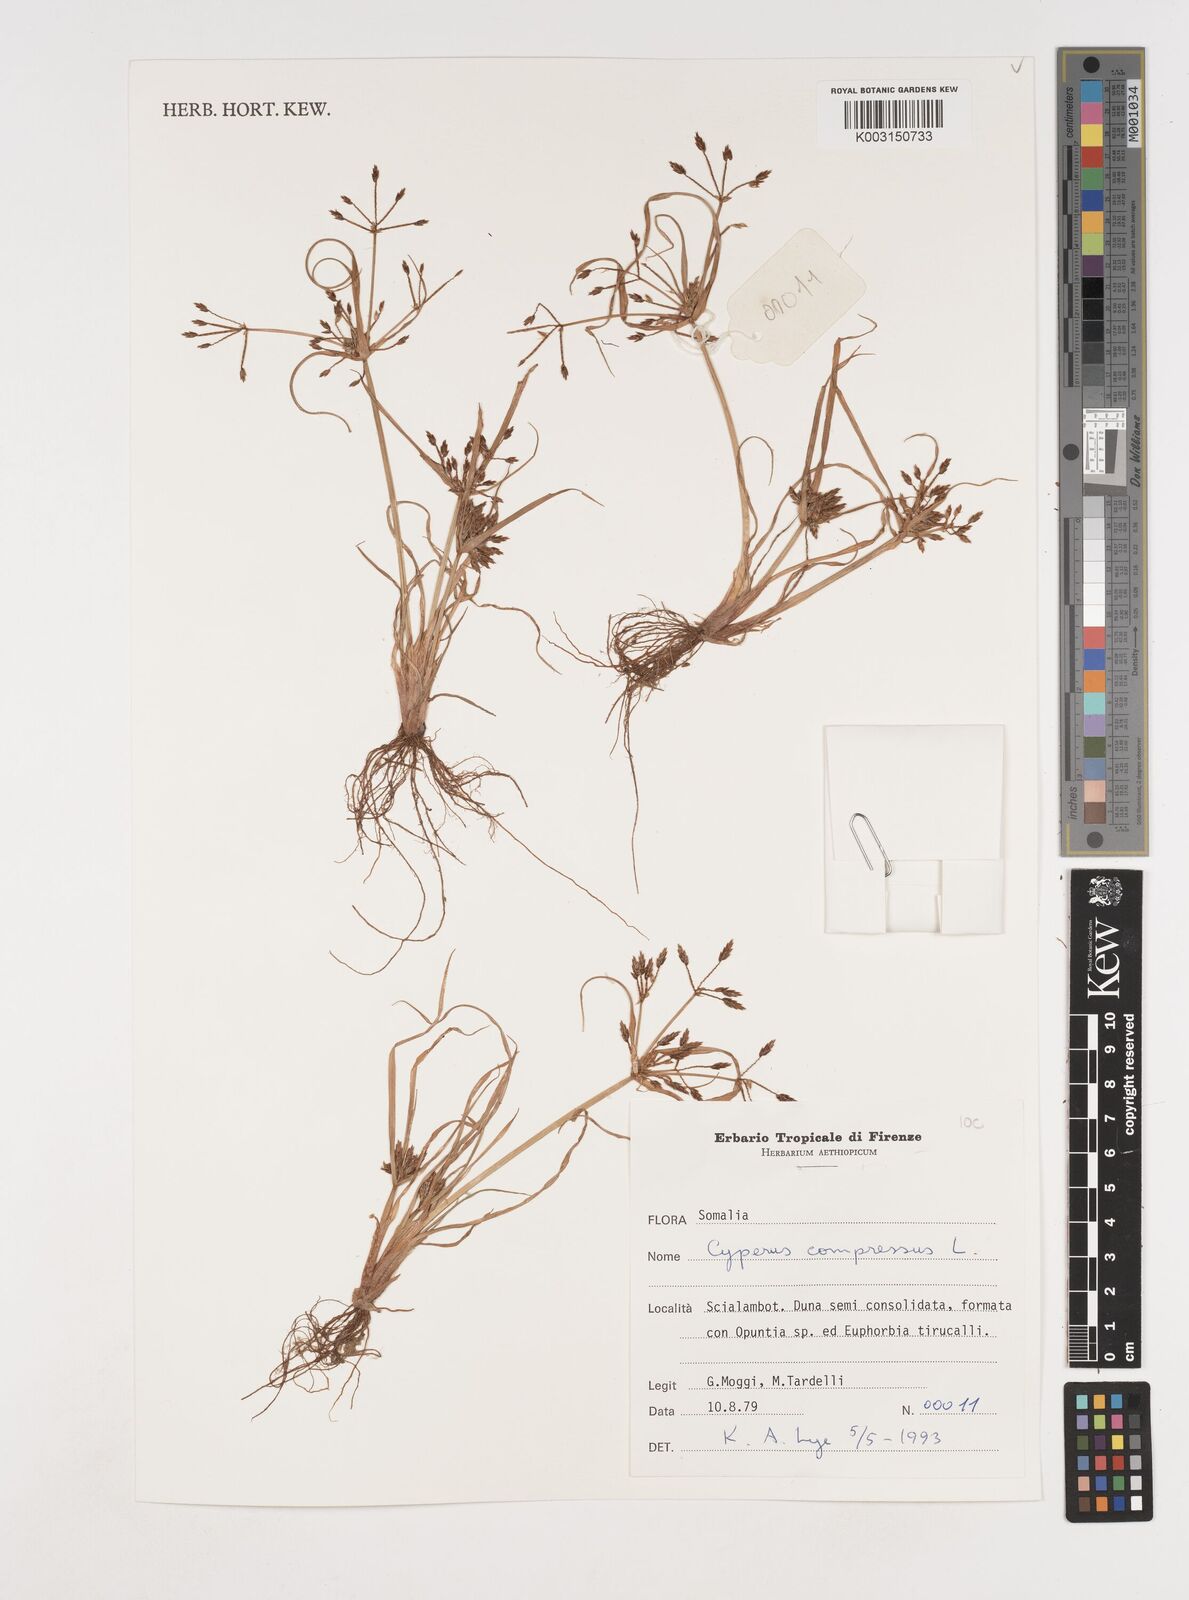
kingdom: Plantae
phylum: Tracheophyta
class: Liliopsida
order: Poales
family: Cyperaceae
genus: Cyperus
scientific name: Cyperus compressus
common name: Poorland flatsedge
